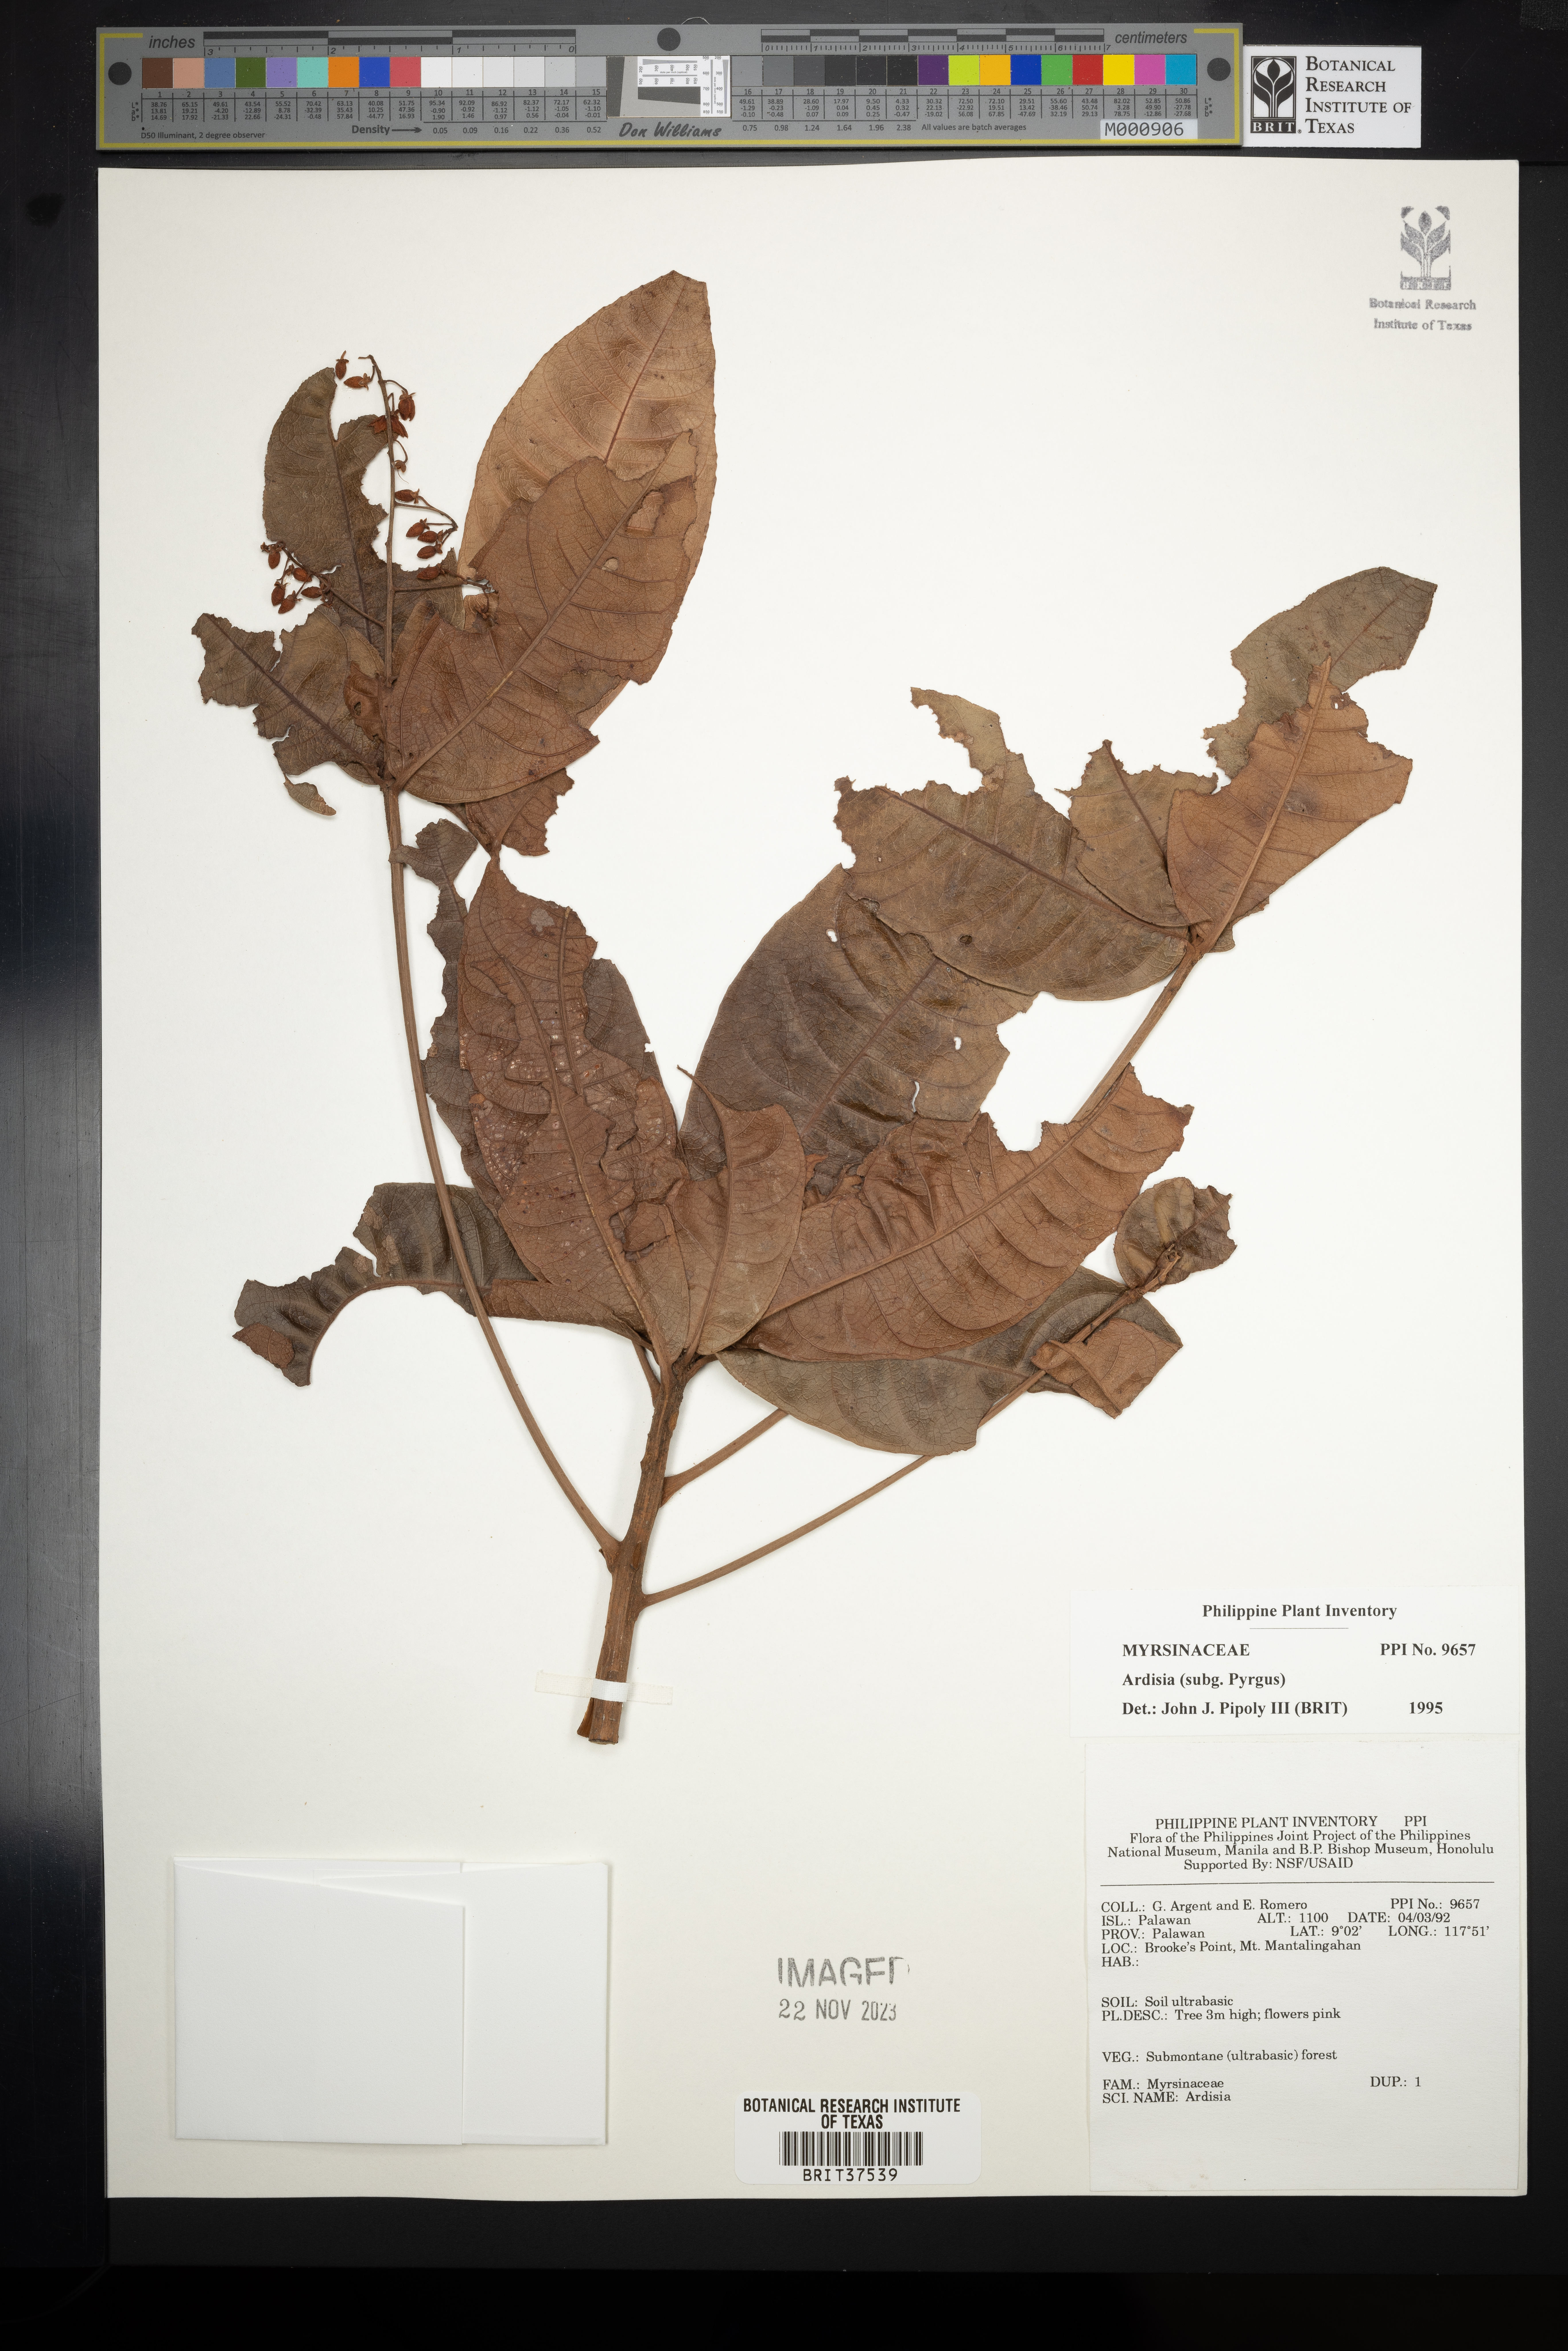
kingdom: Plantae
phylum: Tracheophyta
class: Magnoliopsida
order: Ericales
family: Primulaceae
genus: Ardisia
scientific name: Ardisia
